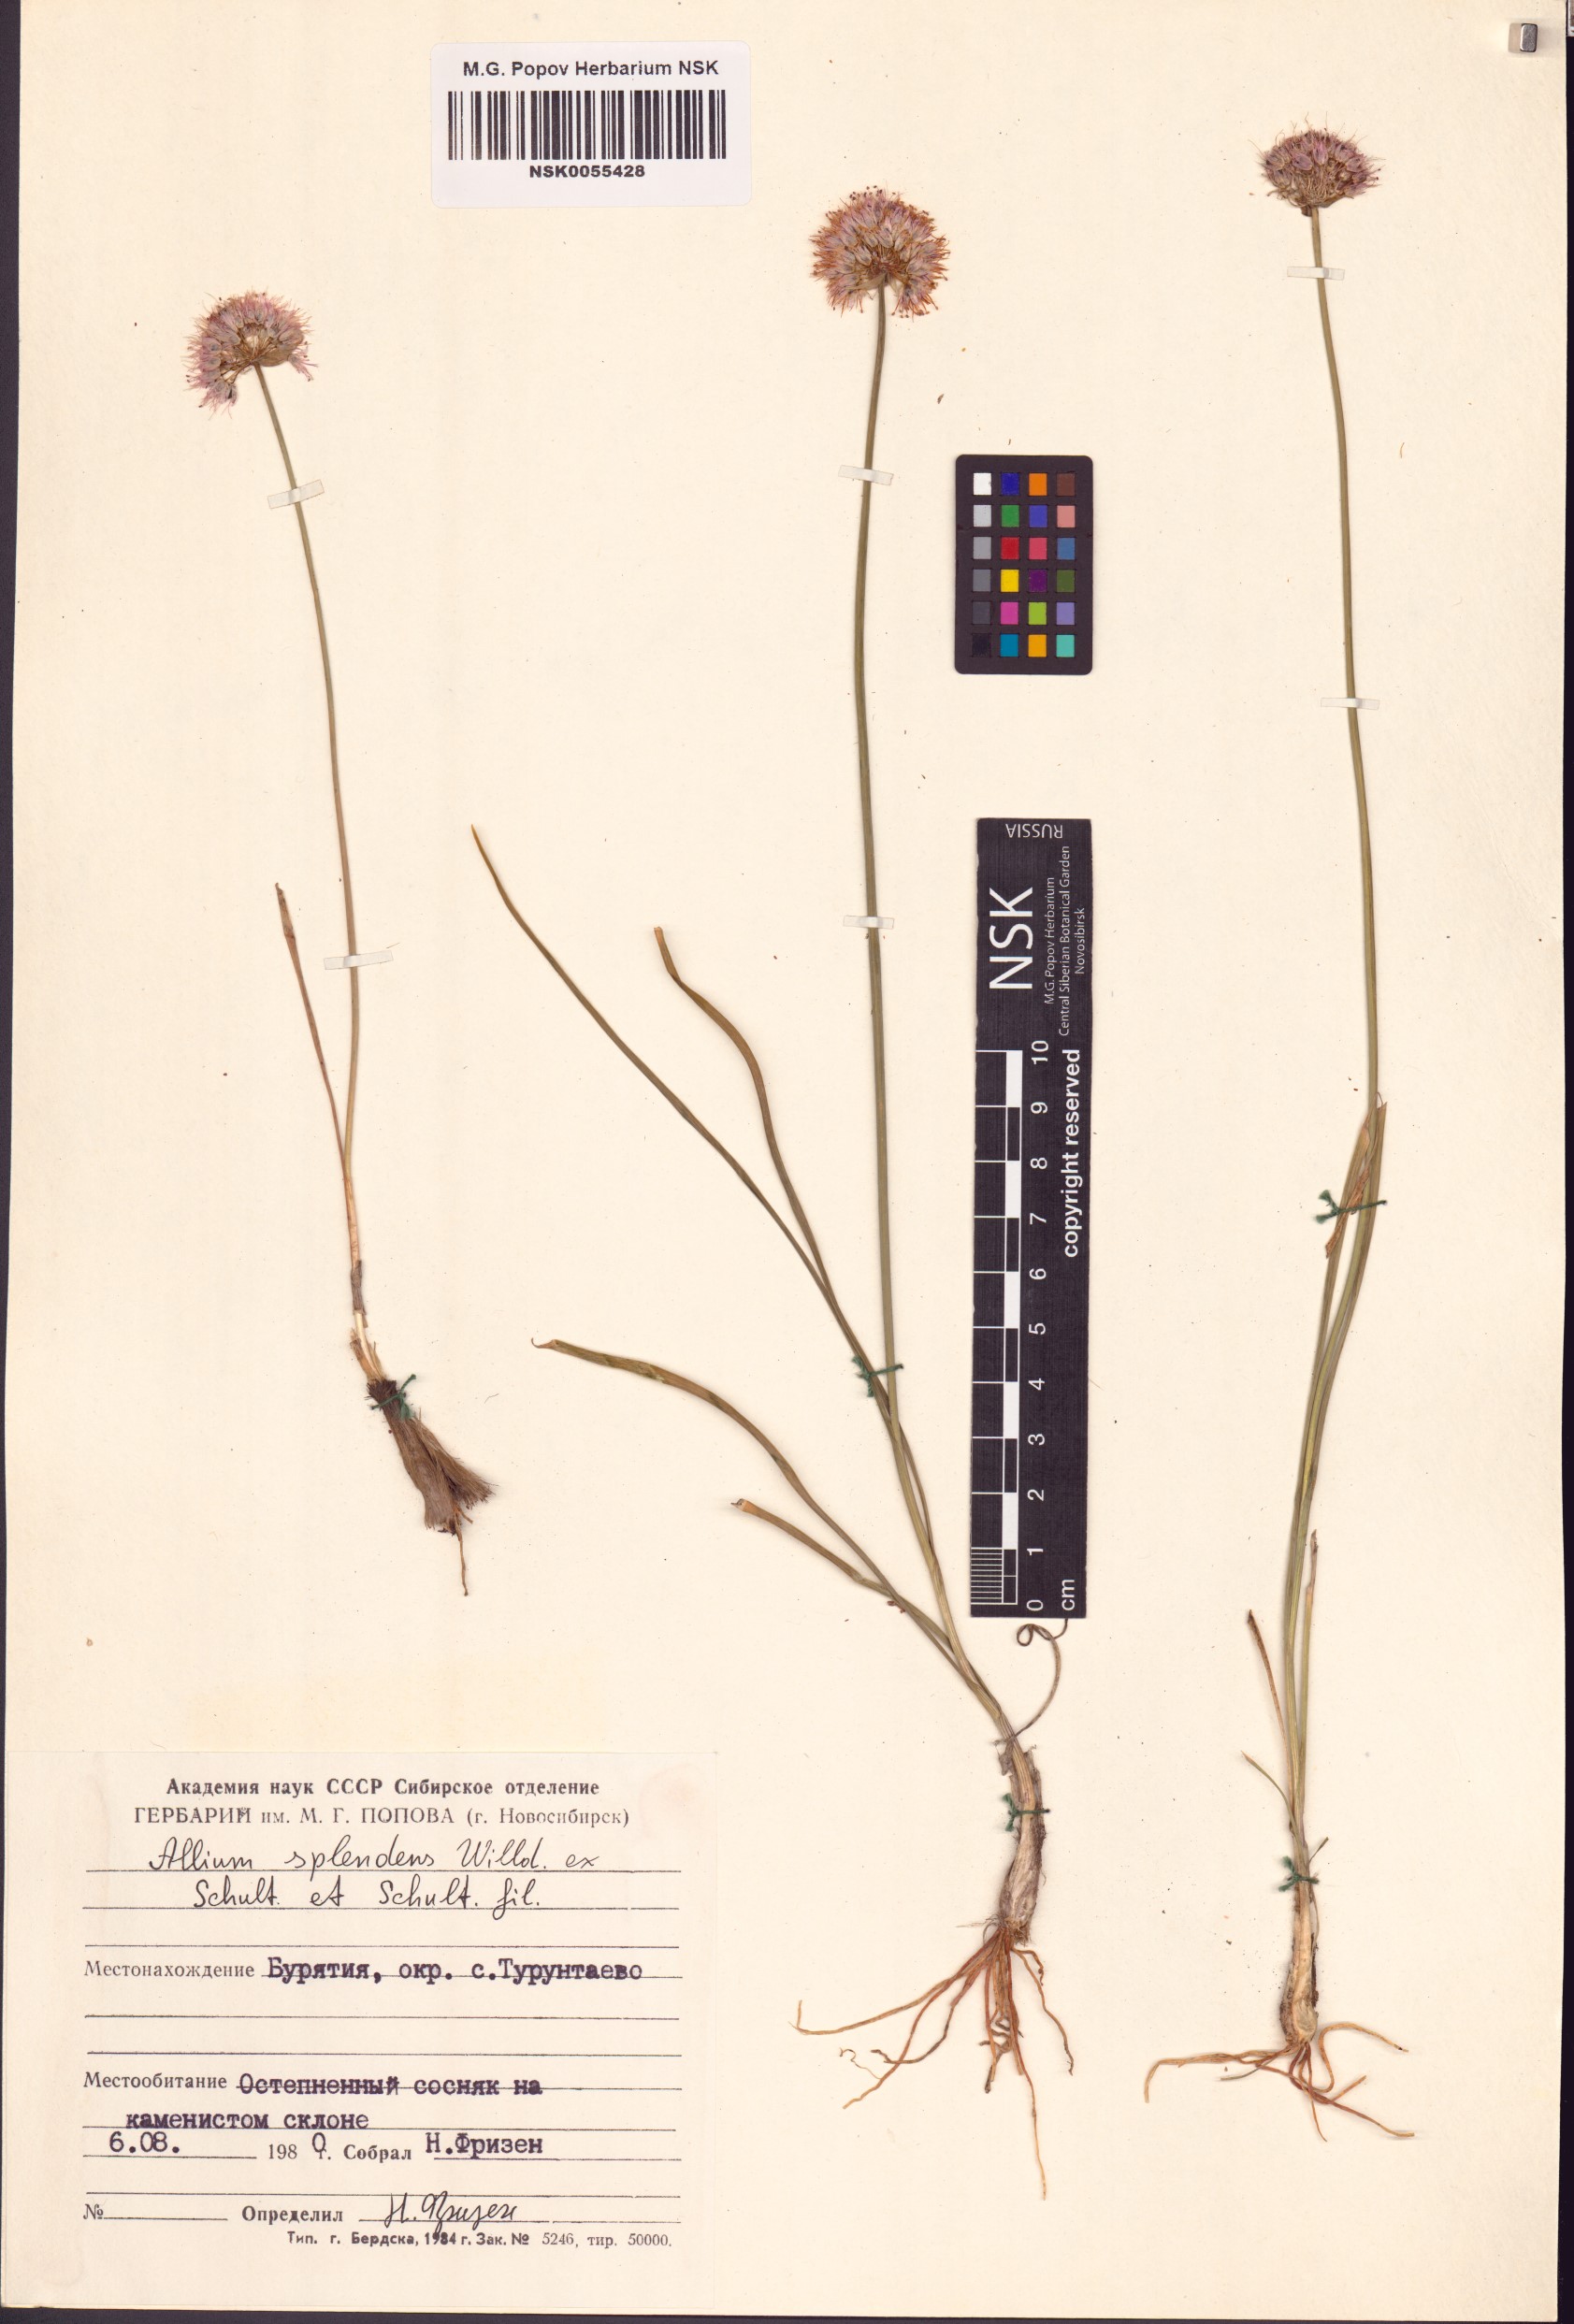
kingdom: Plantae
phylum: Tracheophyta
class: Liliopsida
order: Asparagales
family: Amaryllidaceae
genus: Allium
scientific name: Allium splendens
